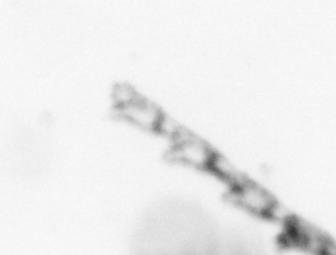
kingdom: Animalia
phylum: Cnidaria
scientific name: Cnidaria
